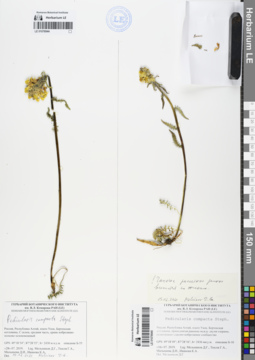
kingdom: Plantae
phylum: Tracheophyta
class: Magnoliopsida
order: Lamiales
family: Orobanchaceae
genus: Pedicularis
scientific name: Pedicularis compacta
